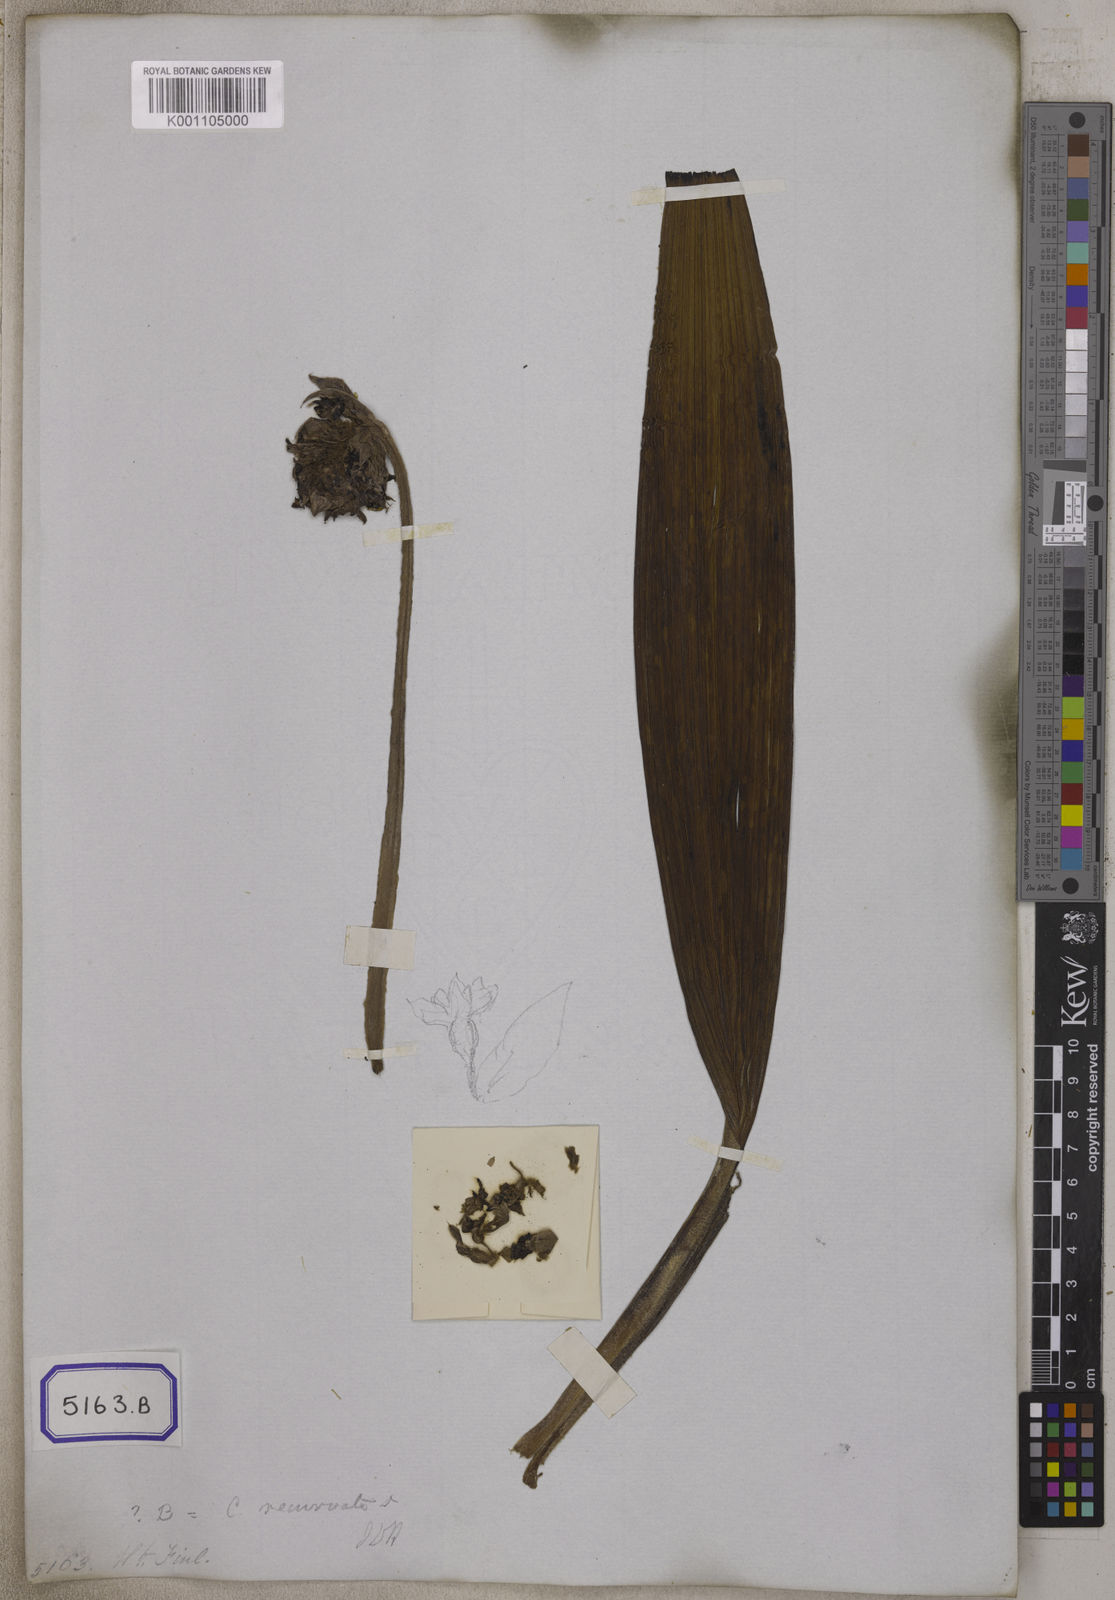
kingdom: Plantae
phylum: Tracheophyta
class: Liliopsida
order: Asparagales
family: Hypoxidaceae
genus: Curculigo
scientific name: Curculigo
